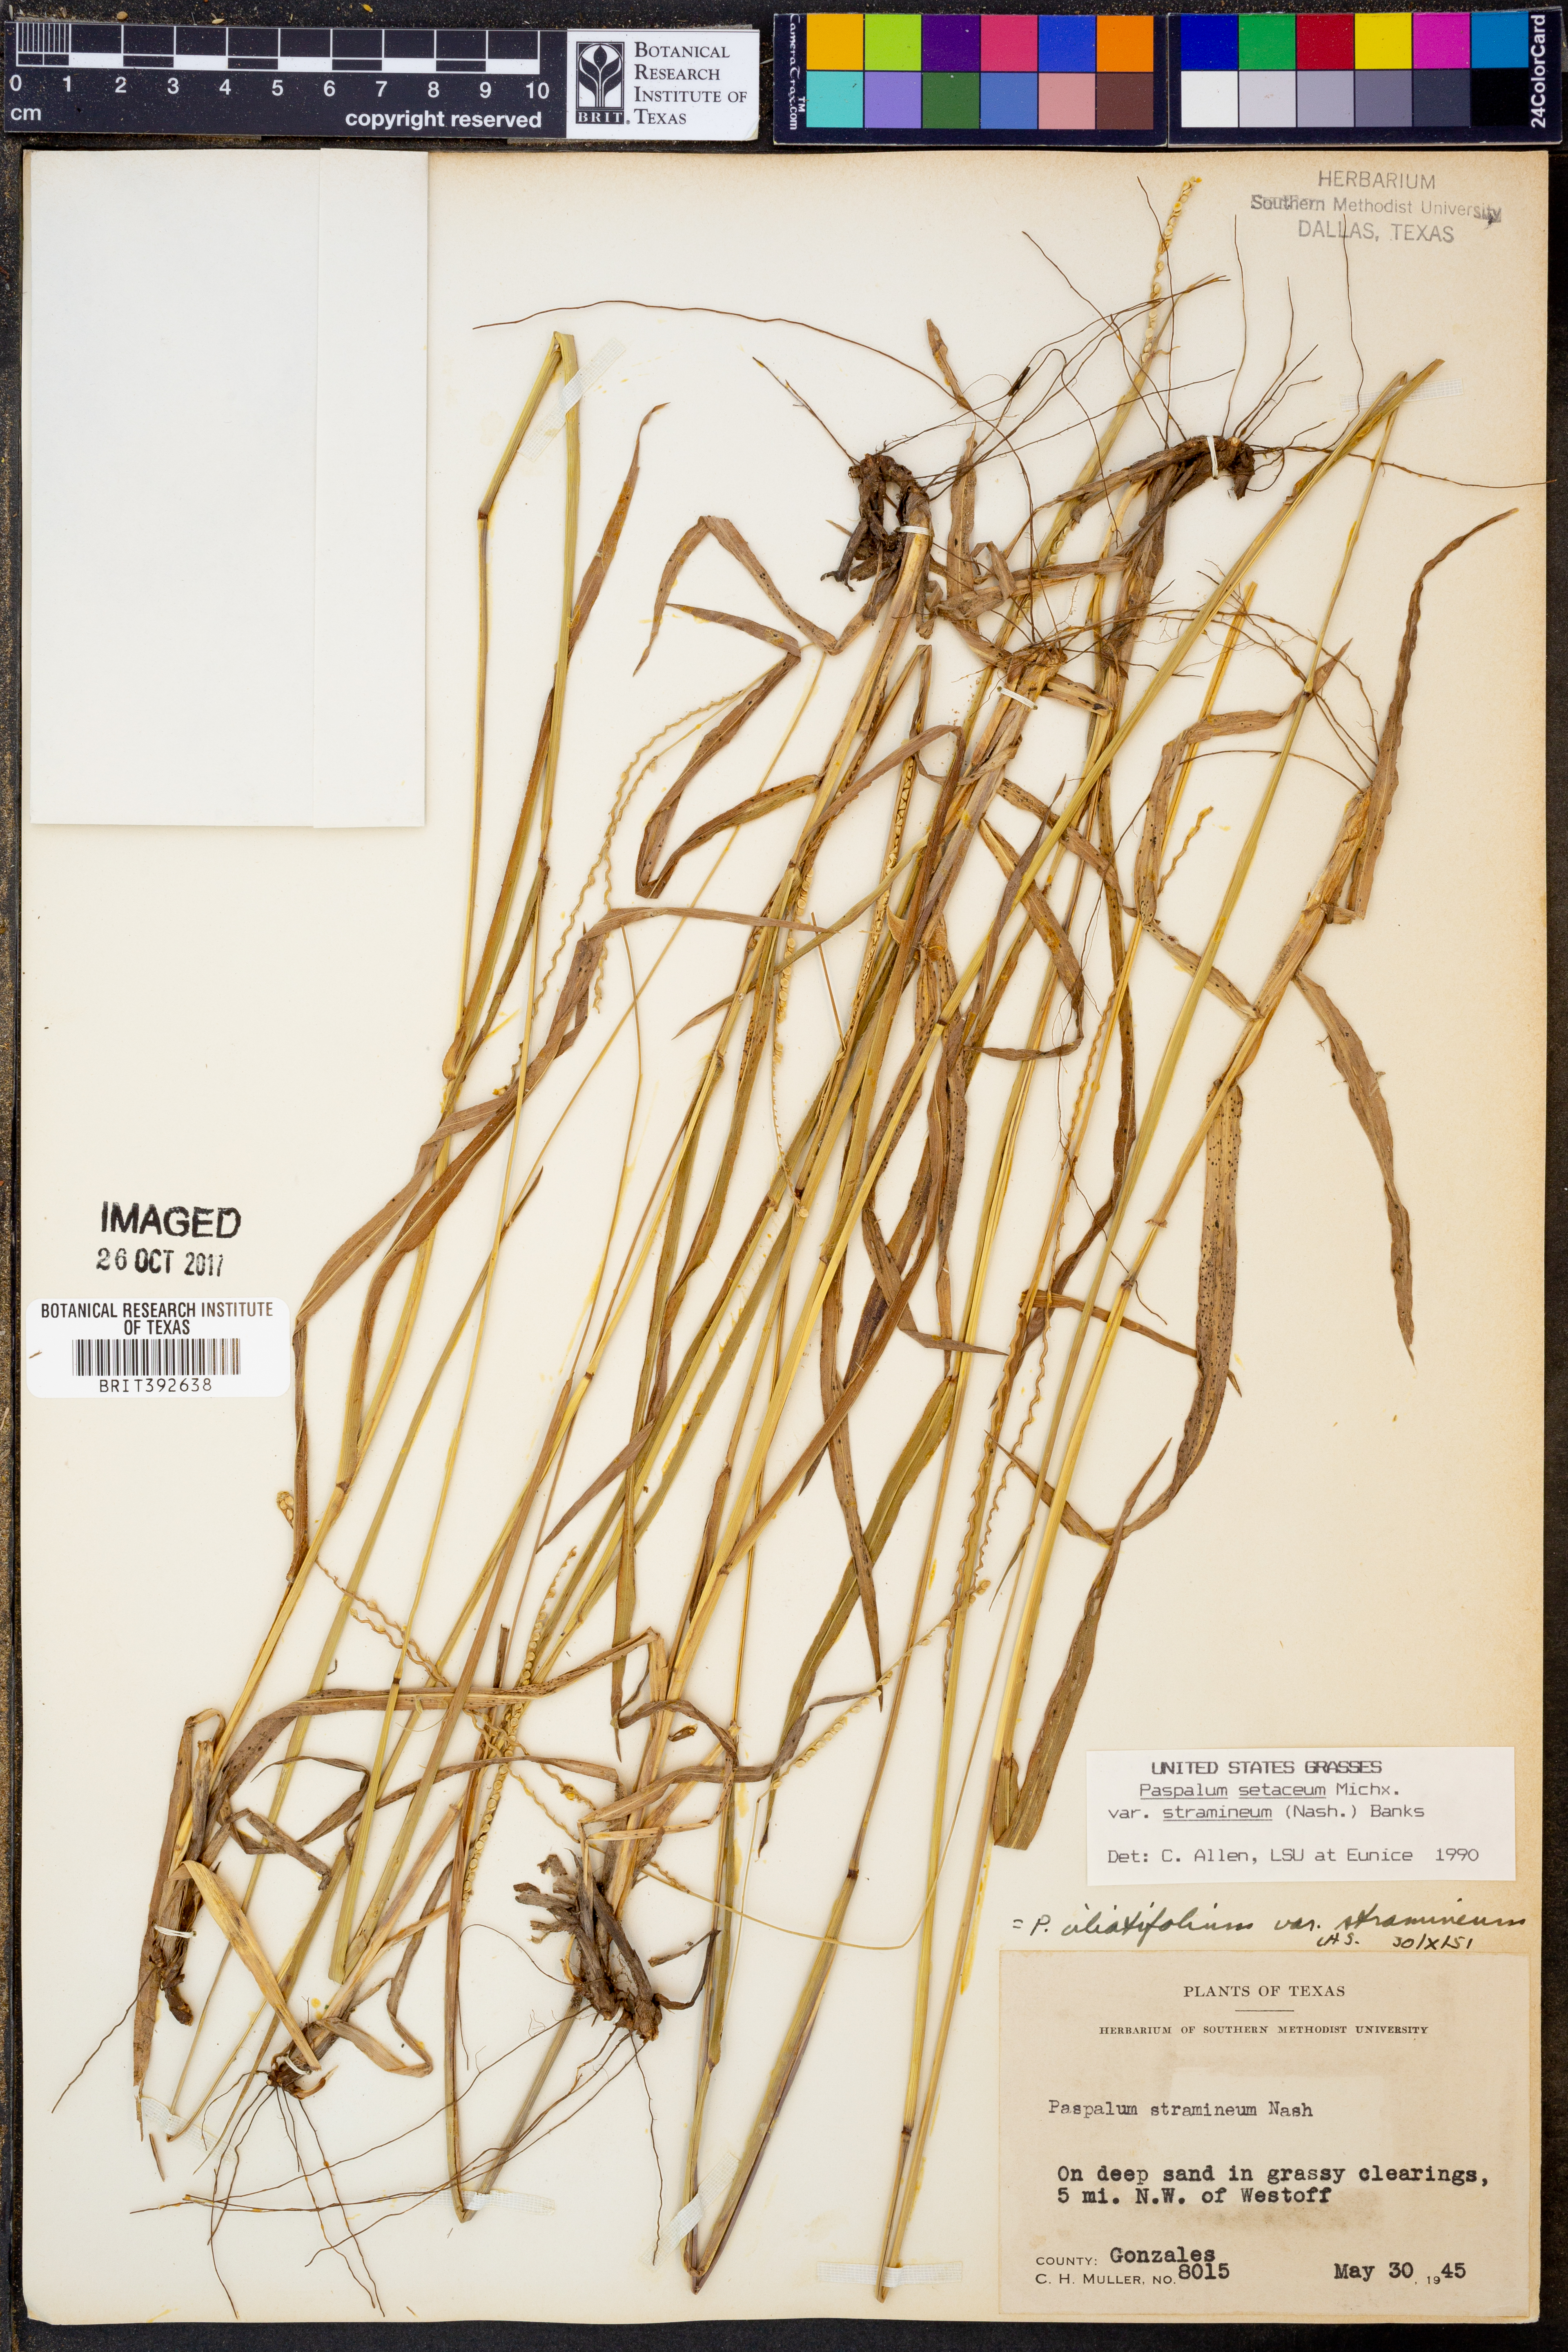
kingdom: Plantae
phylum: Tracheophyta
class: Liliopsida
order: Poales
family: Poaceae
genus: Paspalum
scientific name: Paspalum setaceum
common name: Slender paspalum
